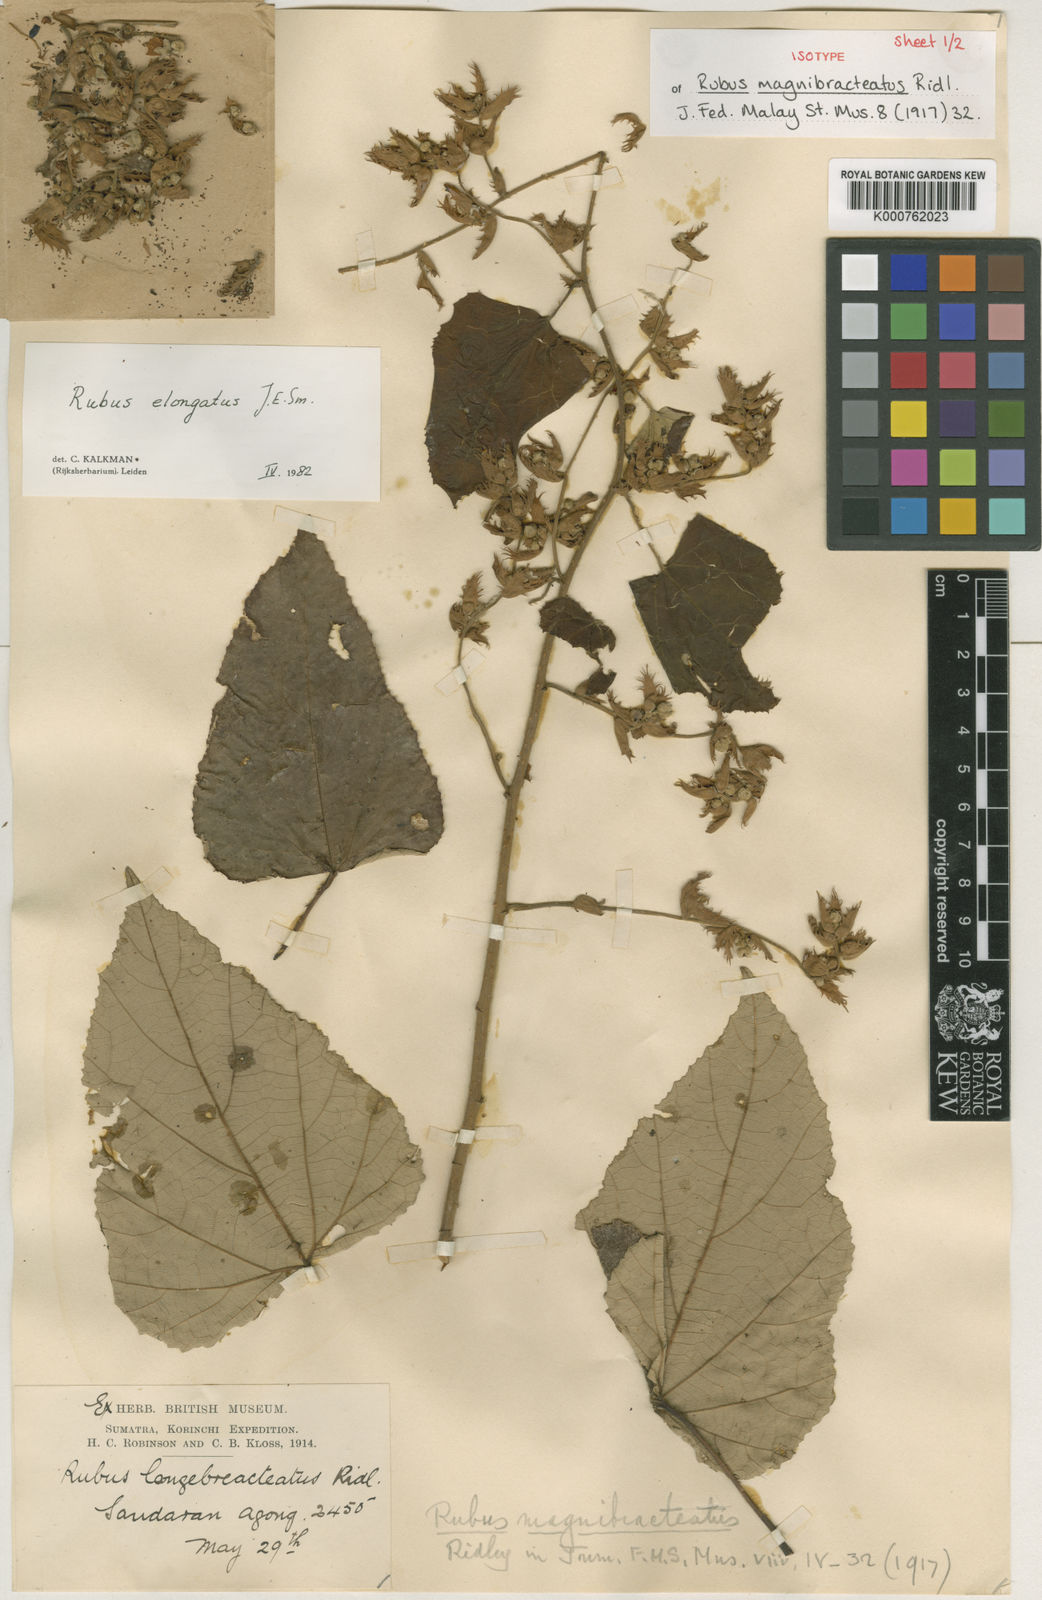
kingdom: Plantae
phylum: Tracheophyta
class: Magnoliopsida
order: Rosales
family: Rosaceae
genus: Rubus
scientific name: Rubus elongatus
